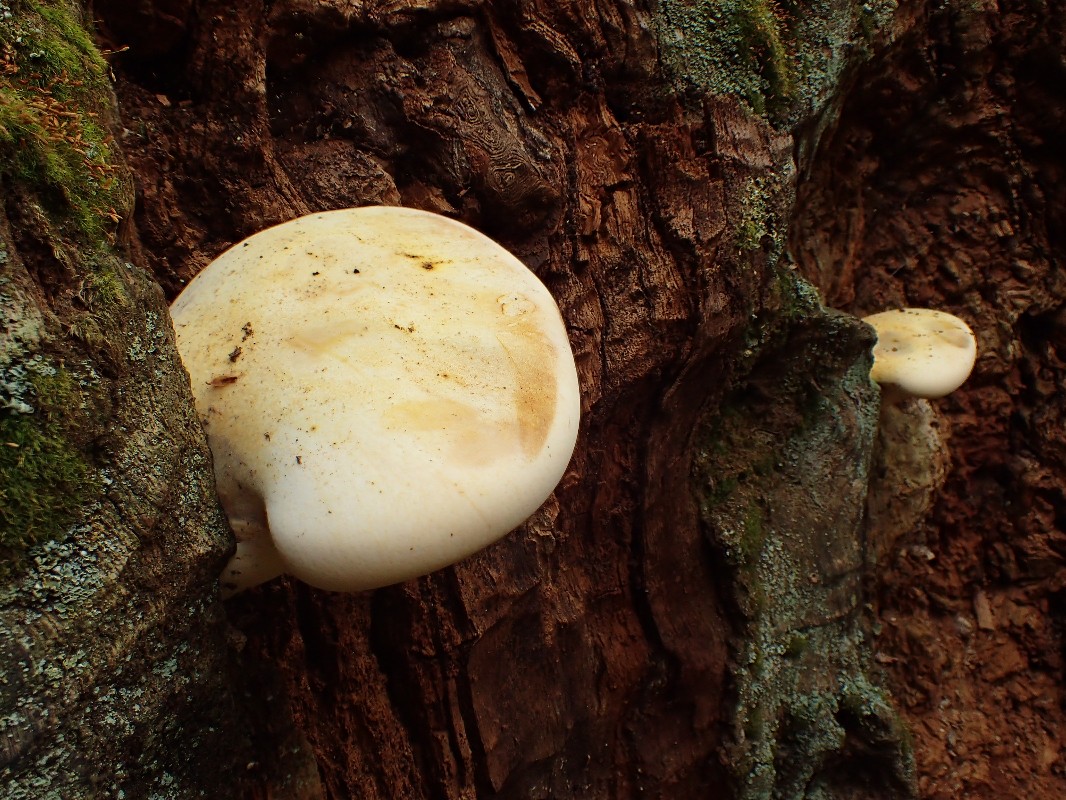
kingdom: Fungi
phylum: Basidiomycota
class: Agaricomycetes
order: Polyporales
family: Fomitopsidaceae
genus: Buglossoporus
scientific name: Buglossoporus quercinus
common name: egetunge
